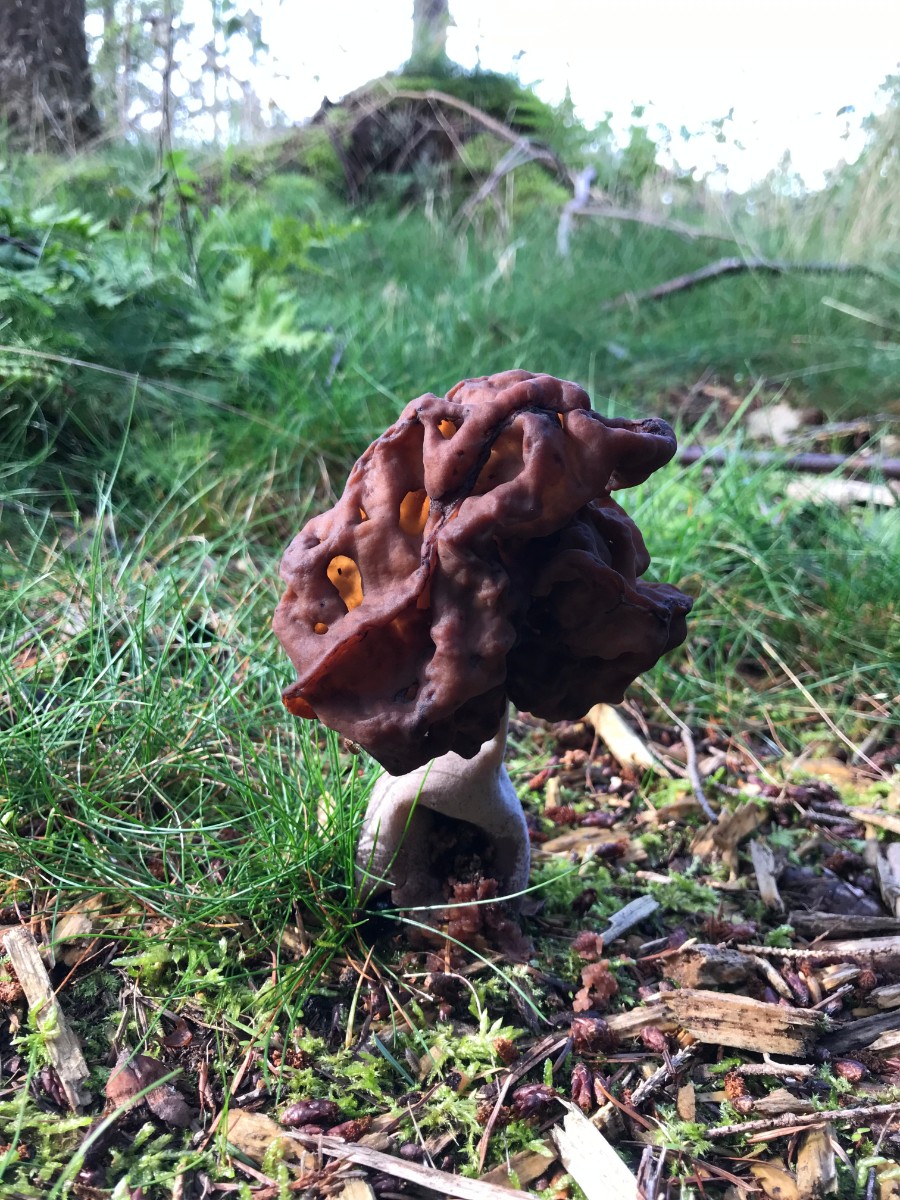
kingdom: Fungi
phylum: Ascomycota
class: Pezizomycetes
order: Pezizales
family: Discinaceae
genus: Gyromitra
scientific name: Gyromitra infula
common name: bispehue-stenmorkel
